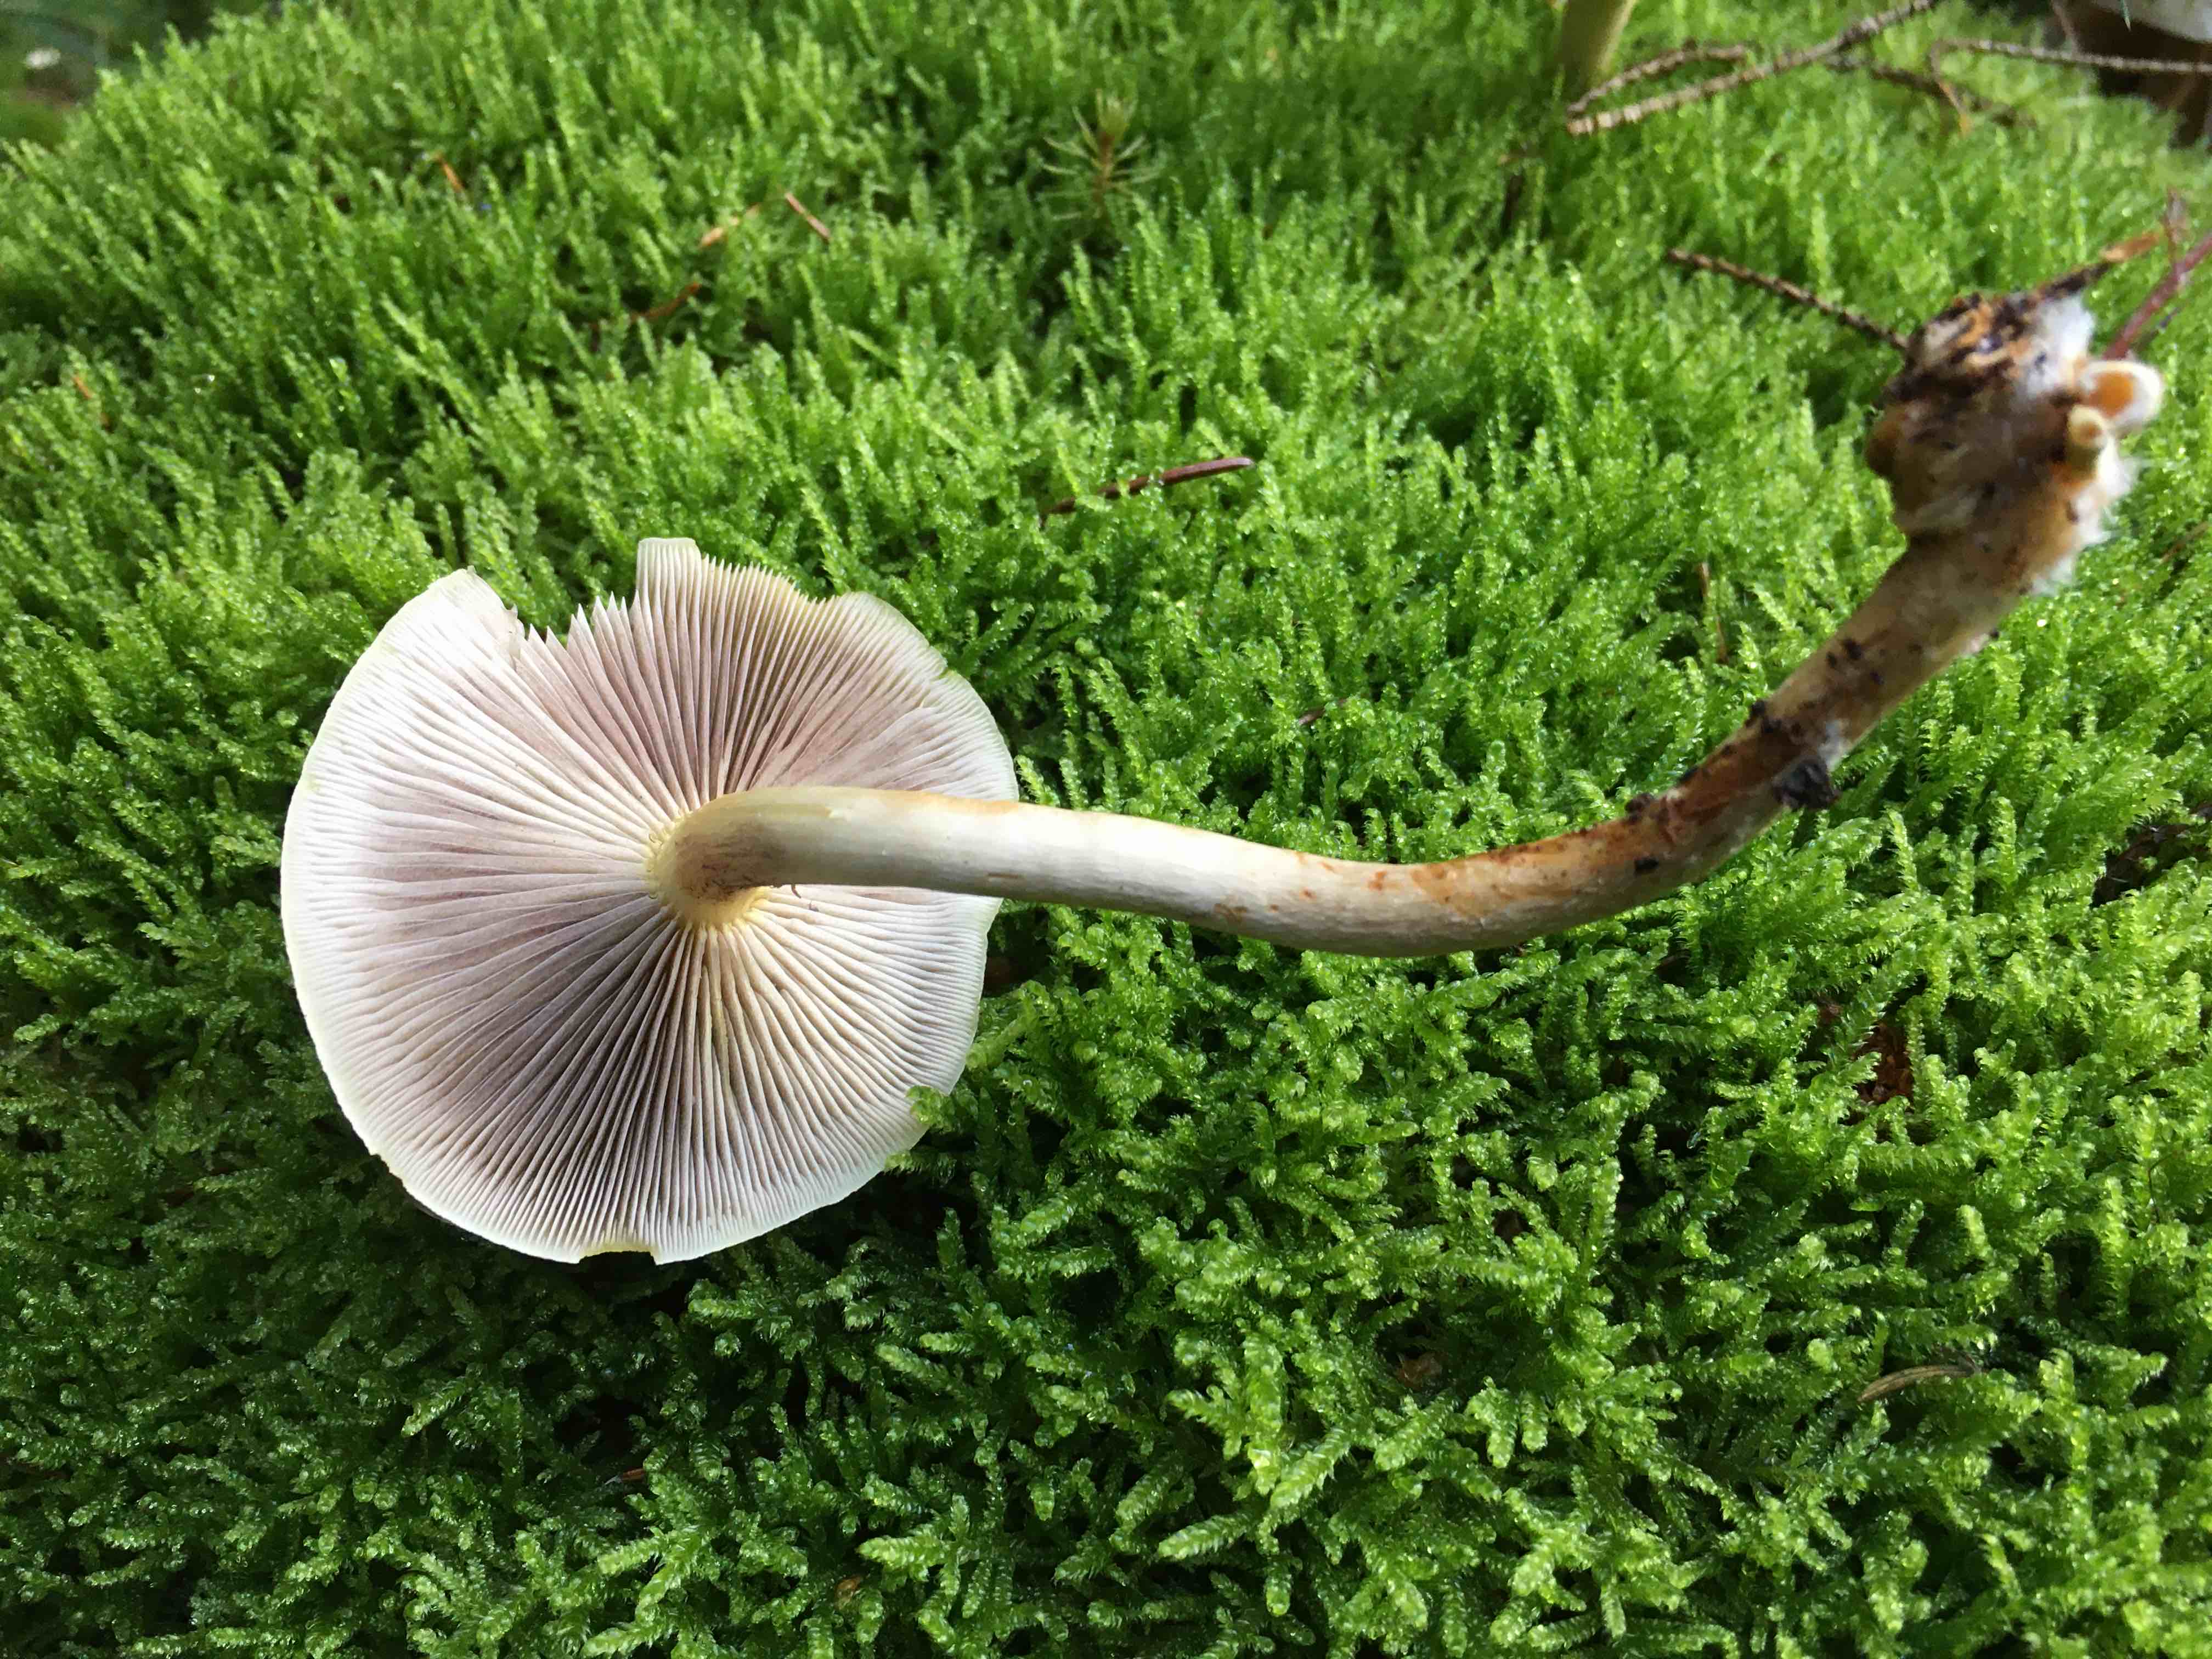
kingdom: Fungi
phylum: Basidiomycota
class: Agaricomycetes
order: Agaricales
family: Strophariaceae
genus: Hypholoma
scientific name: Hypholoma capnoides
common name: gran-svovlhat
